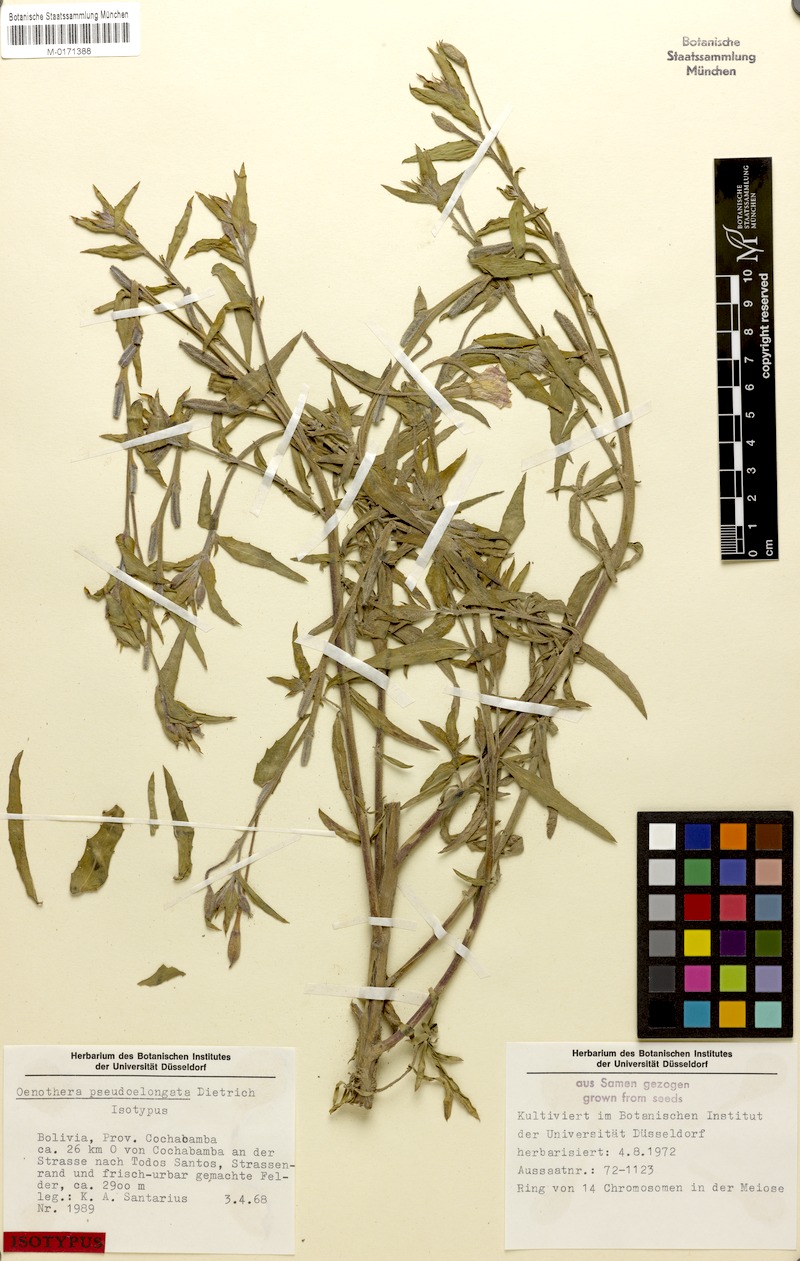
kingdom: Plantae
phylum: Tracheophyta
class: Magnoliopsida
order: Myrtales
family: Onagraceae
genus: Oenothera
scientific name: Oenothera pseudoelongata
